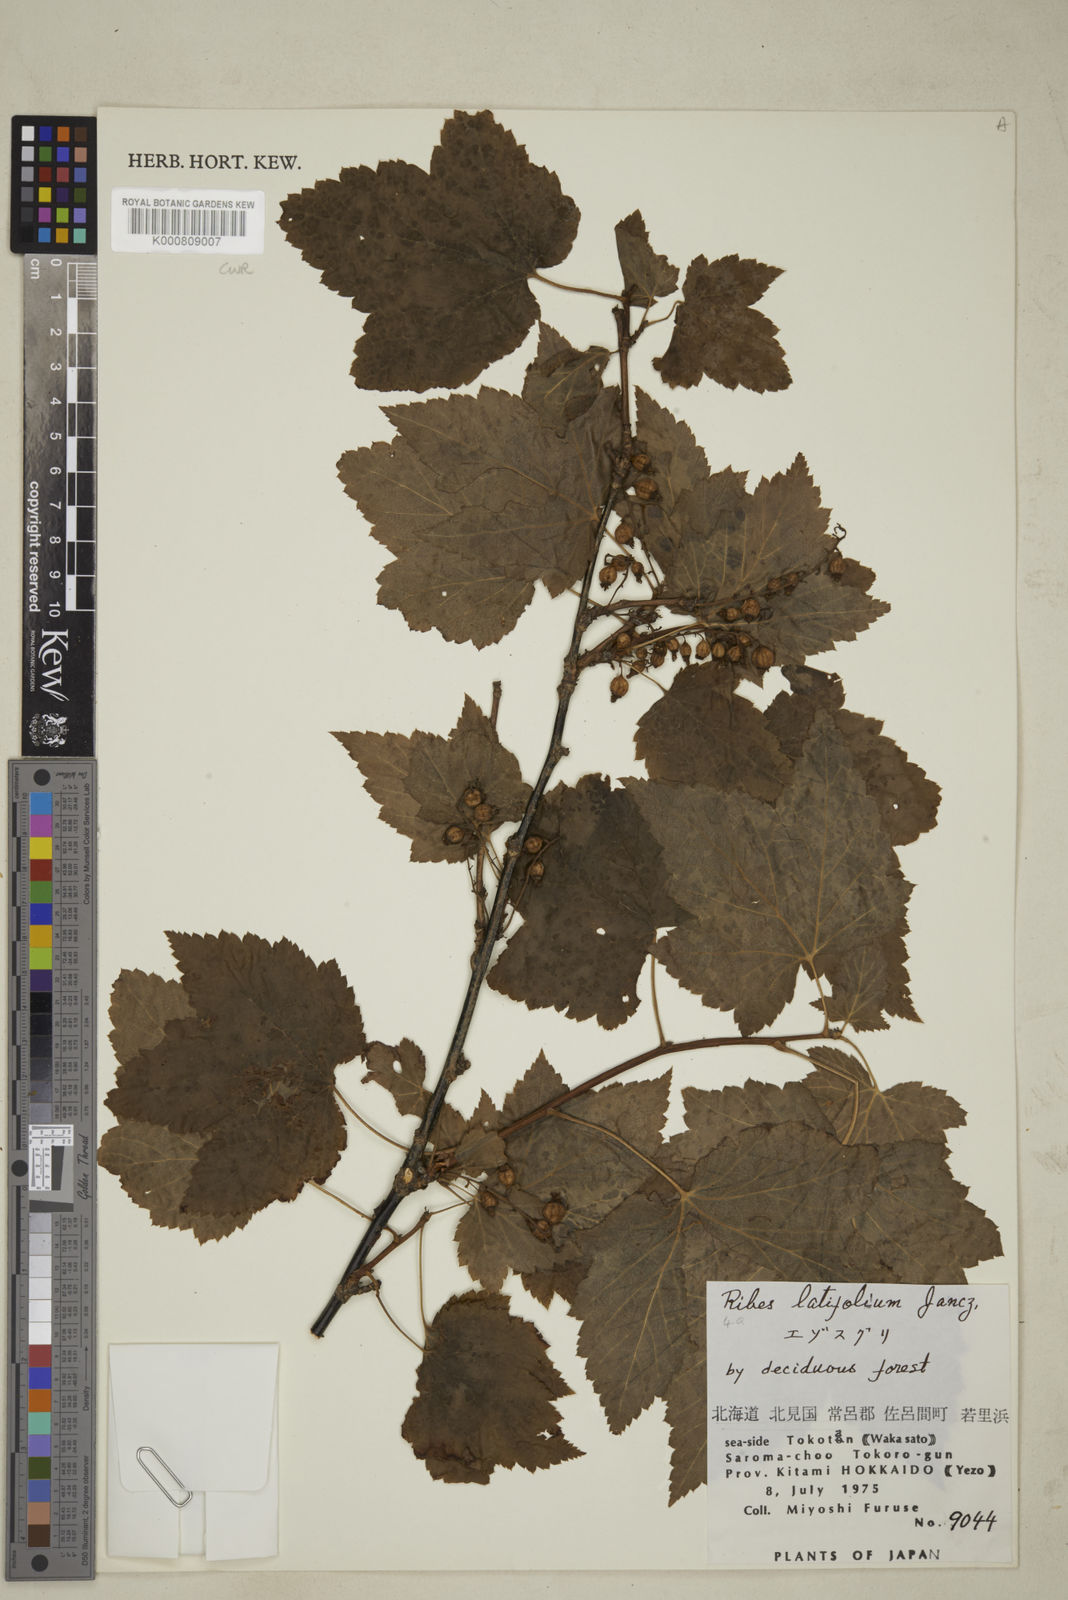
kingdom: Plantae
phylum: Tracheophyta
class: Magnoliopsida
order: Saxifragales
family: Grossulariaceae
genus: Ribes
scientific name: Ribes latifolium
